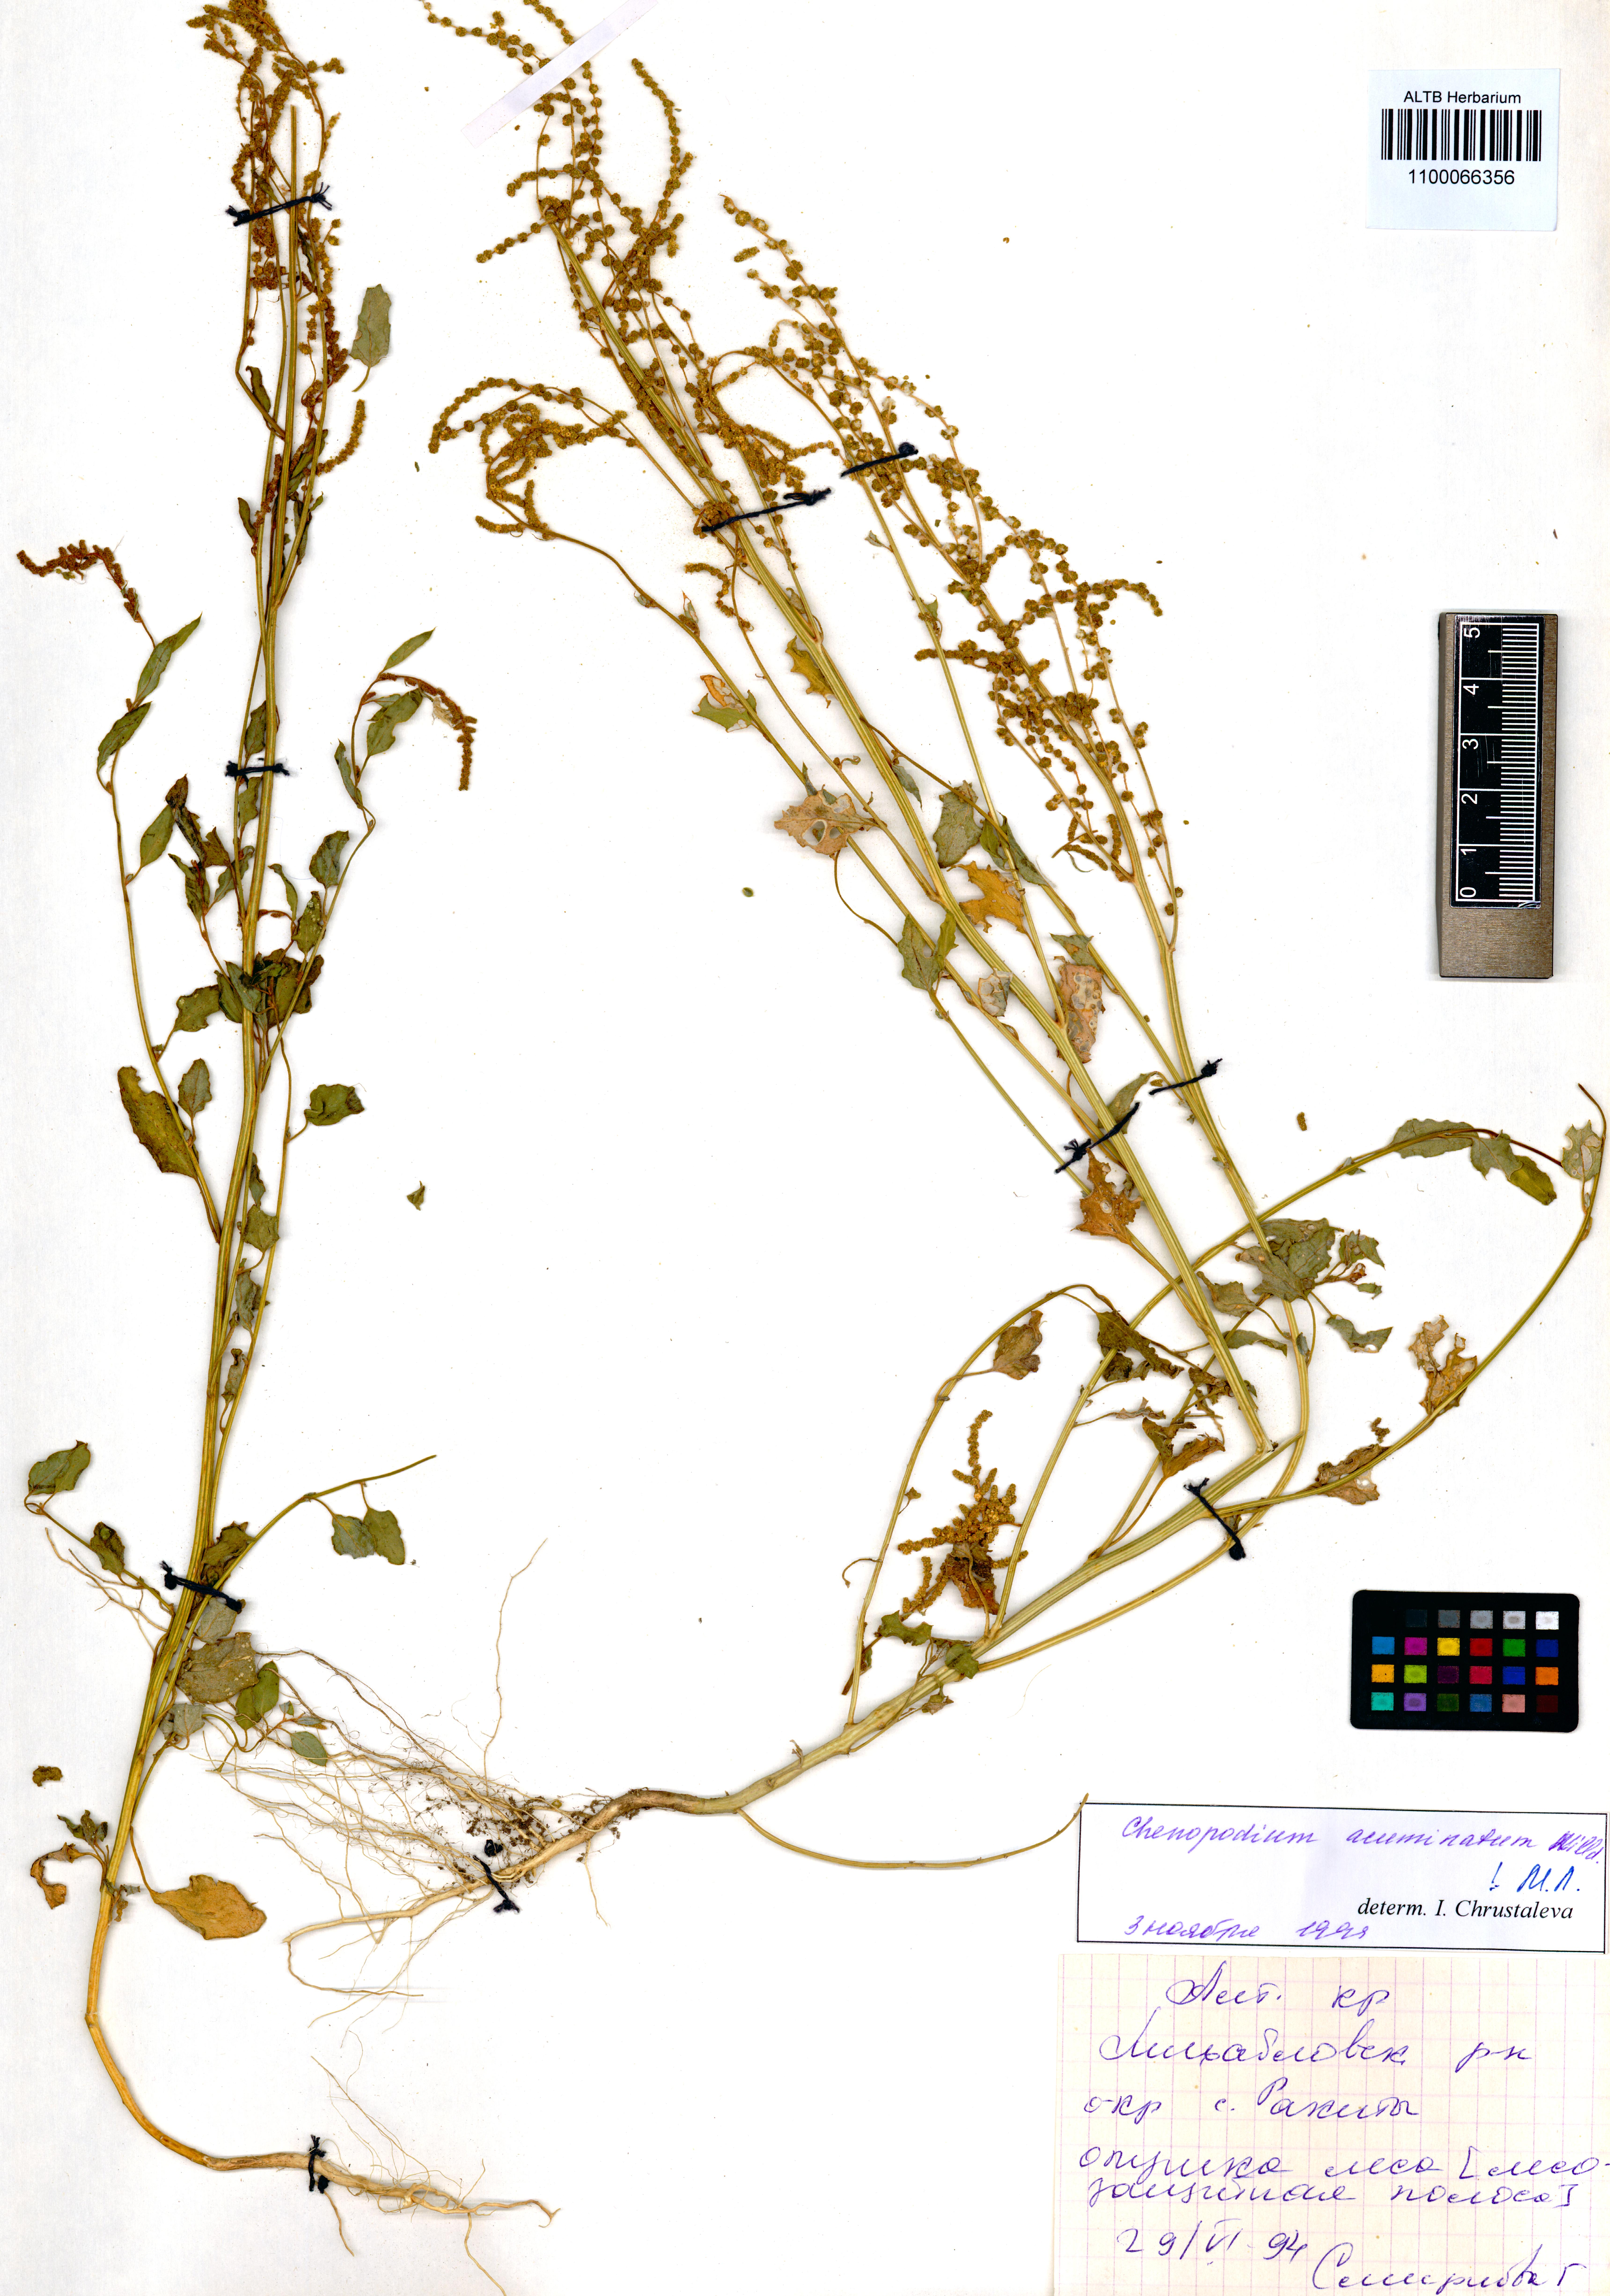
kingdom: Plantae
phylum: Tracheophyta
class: Magnoliopsida
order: Caryophyllales
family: Amaranthaceae
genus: Chenopodium
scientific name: Chenopodium acuminatum
